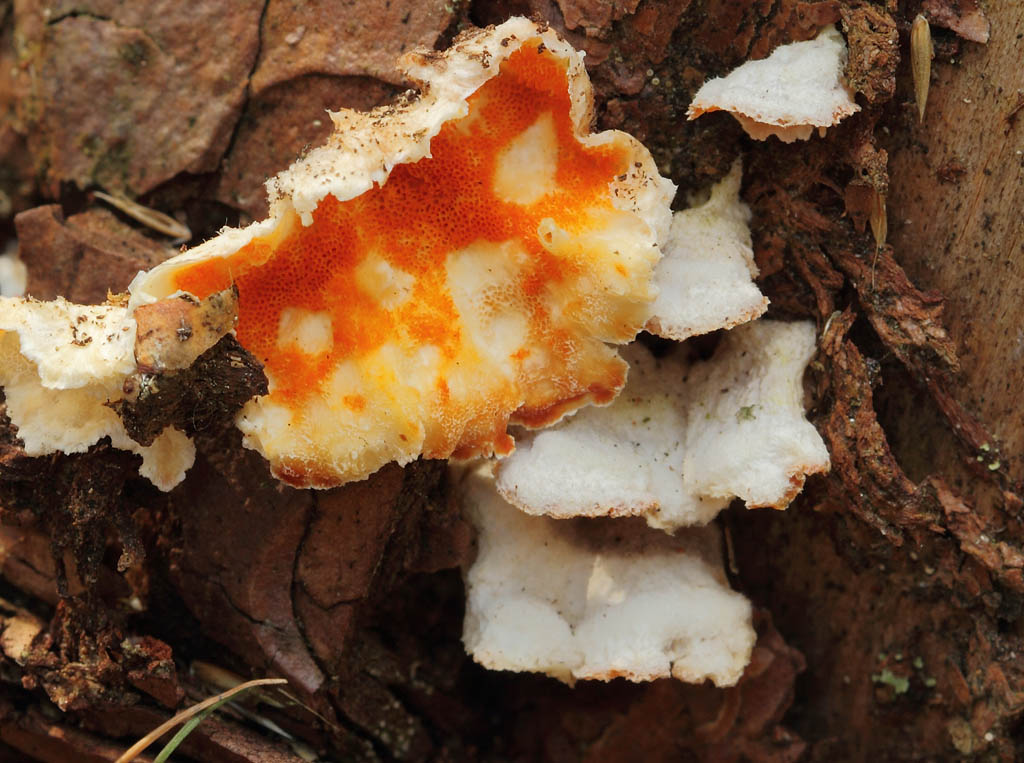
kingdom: Fungi
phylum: Basidiomycota
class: Agaricomycetes
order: Polyporales
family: Incrustoporiaceae
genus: Skeletocutis
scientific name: Skeletocutis amorpha
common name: orange krystalporesvamp
